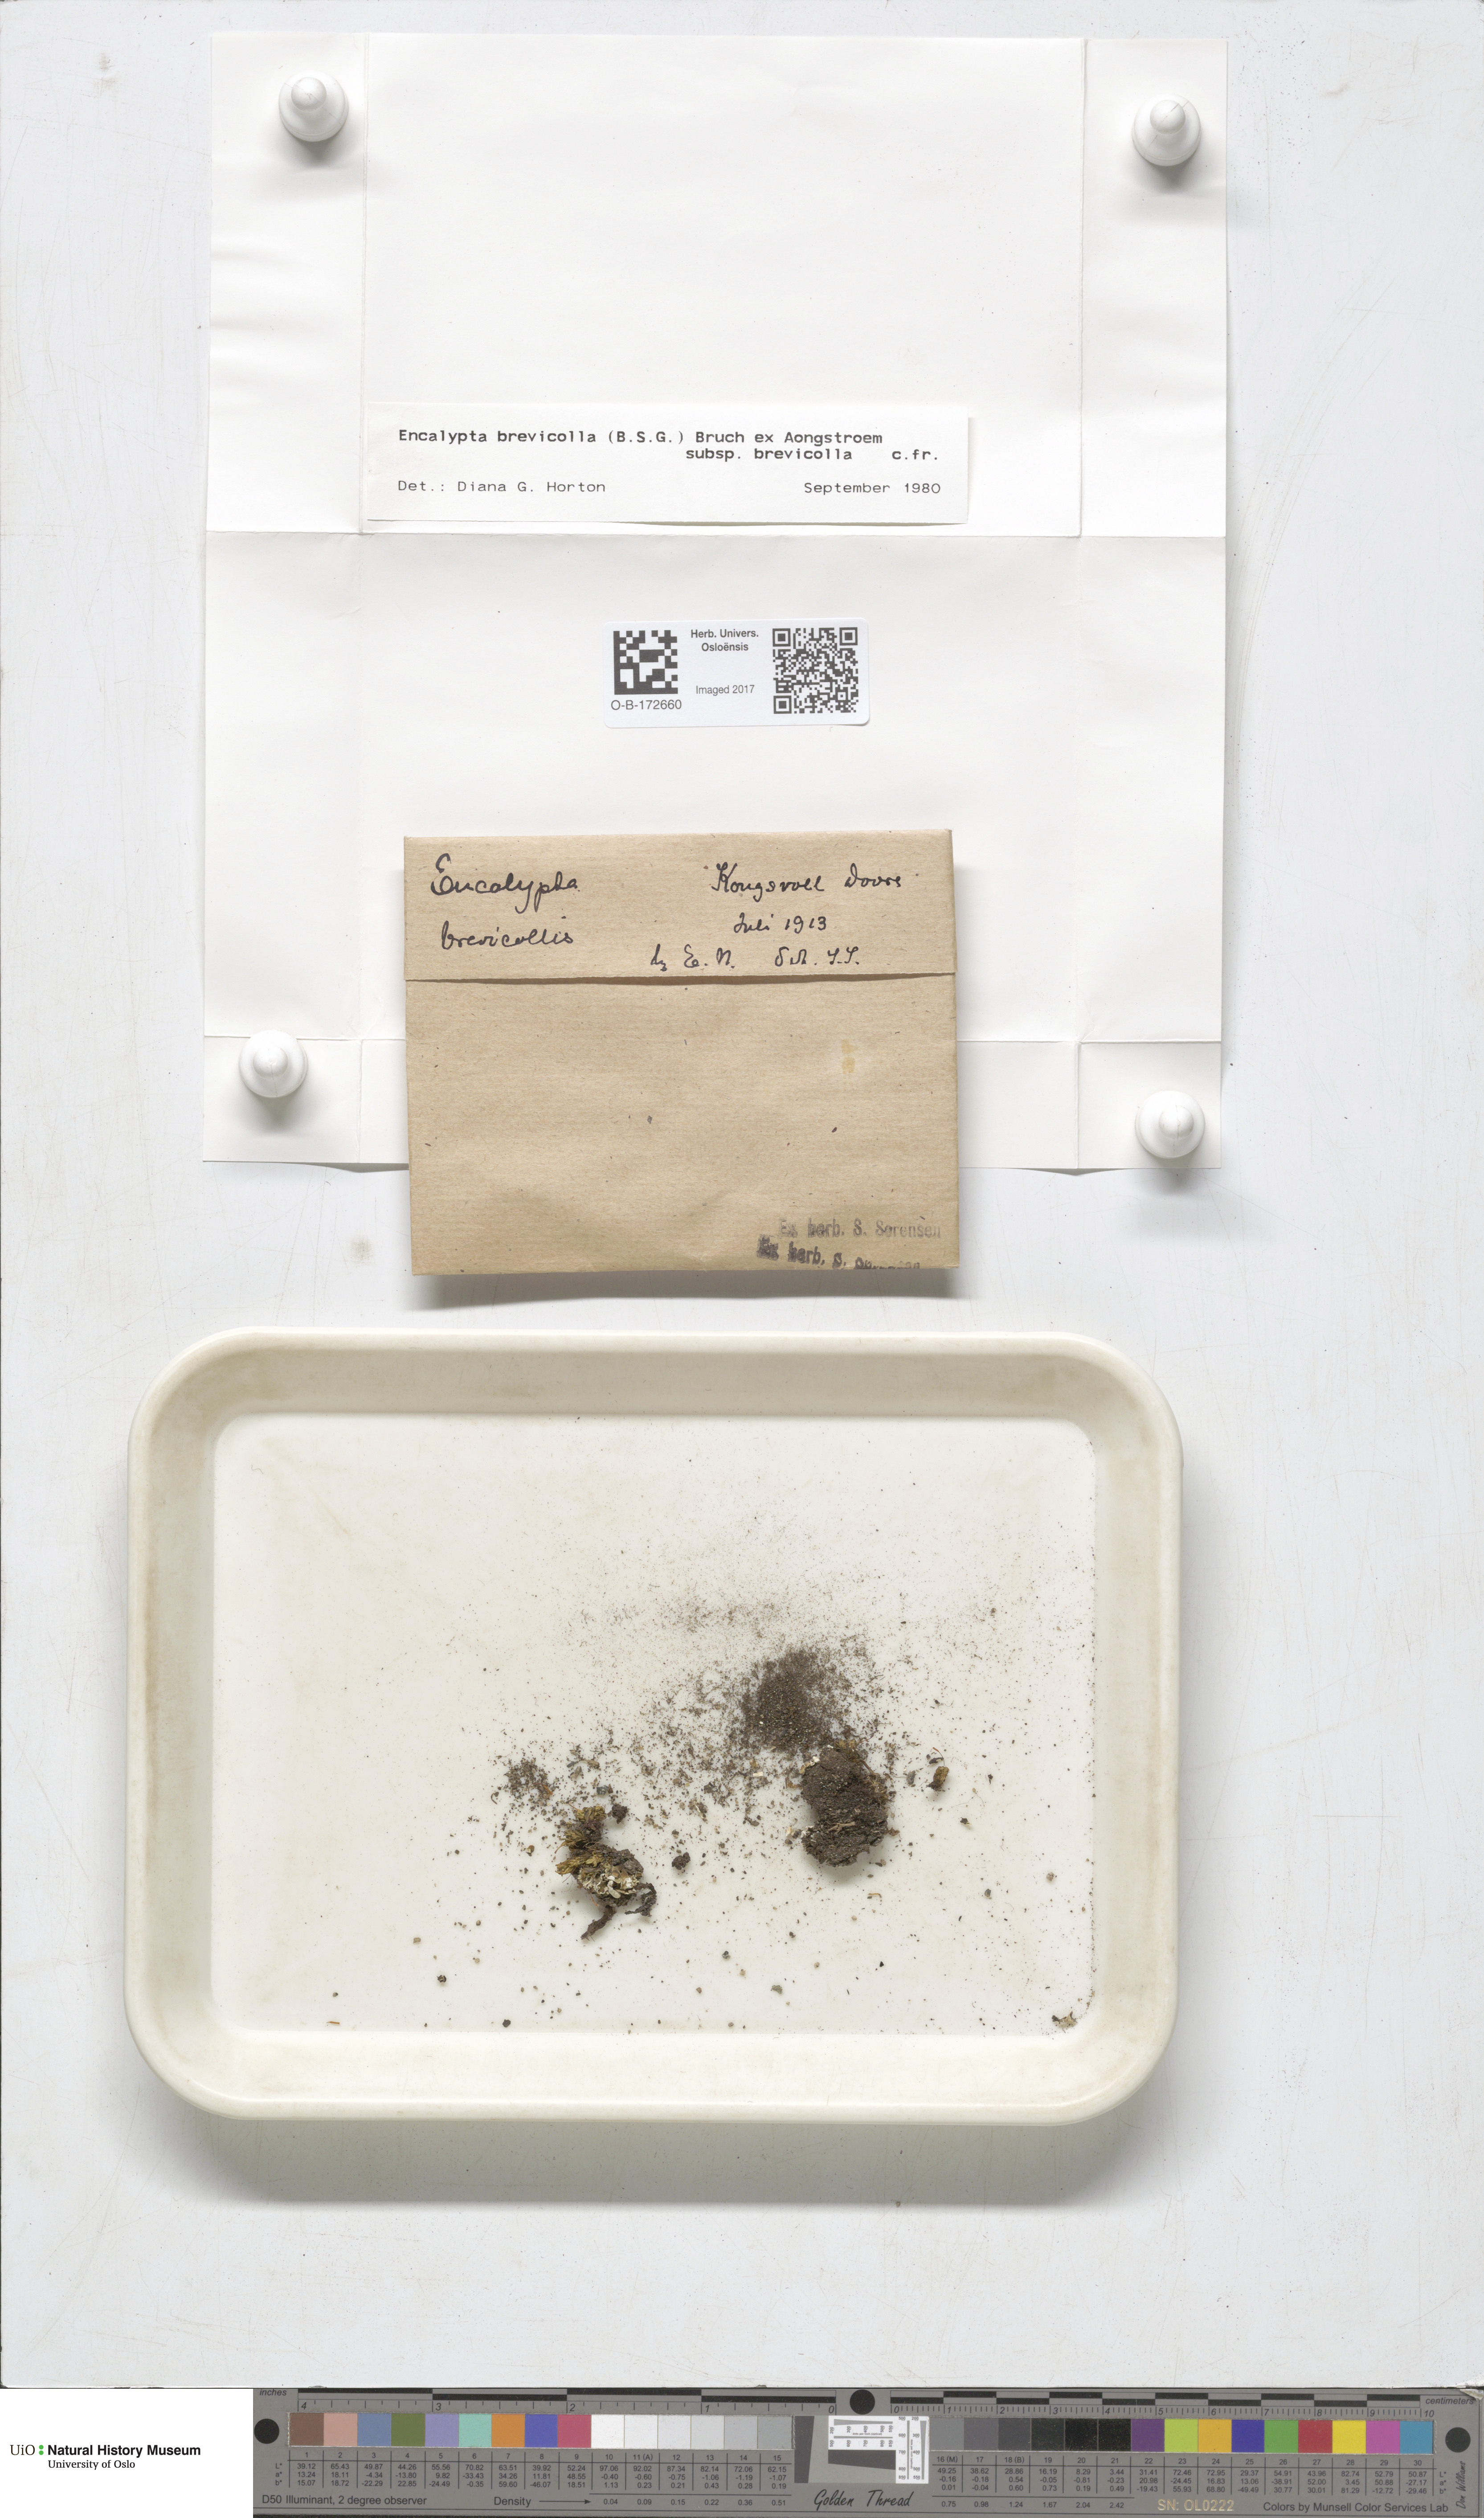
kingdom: Plantae
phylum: Bryophyta
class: Bryopsida
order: Encalyptales
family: Encalyptaceae
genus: Encalypta
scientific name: Encalypta brevicolla
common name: White-mouthed extinguisher-moss
